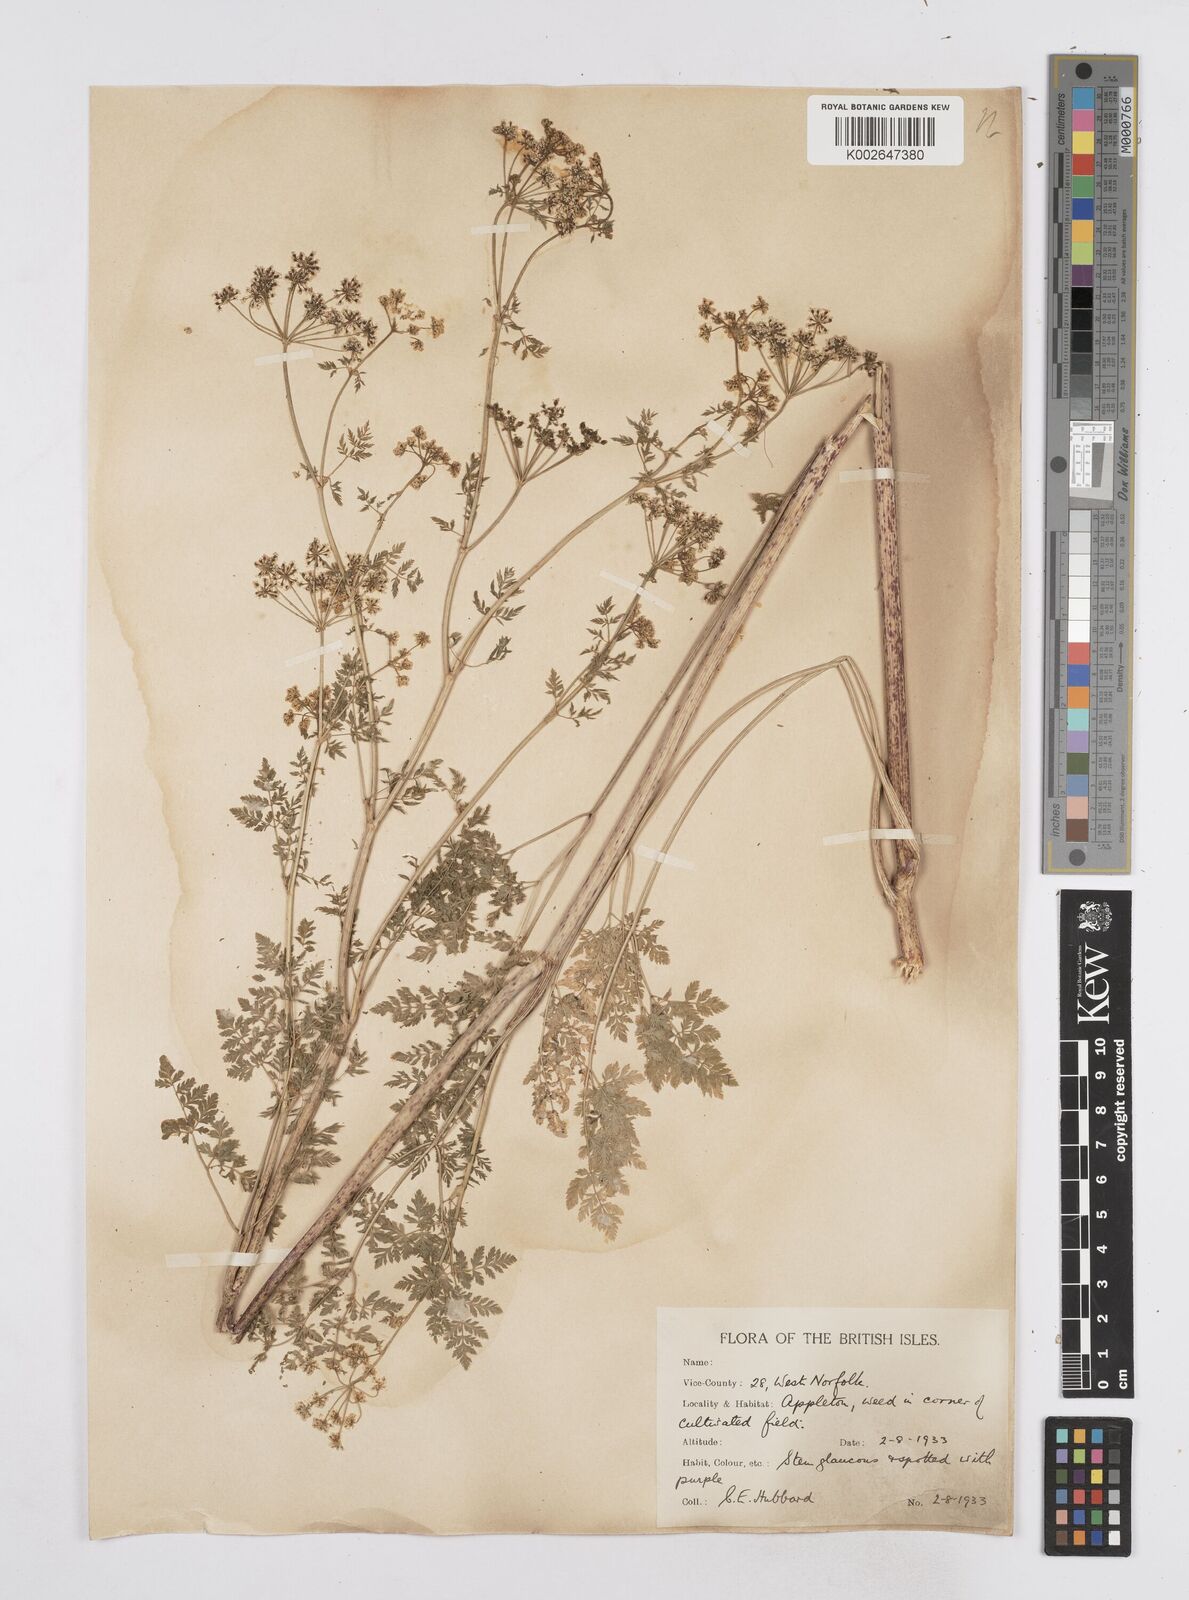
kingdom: Plantae
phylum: Tracheophyta
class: Magnoliopsida
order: Apiales
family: Apiaceae
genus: Conium
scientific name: Conium maculatum
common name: Hemlock
